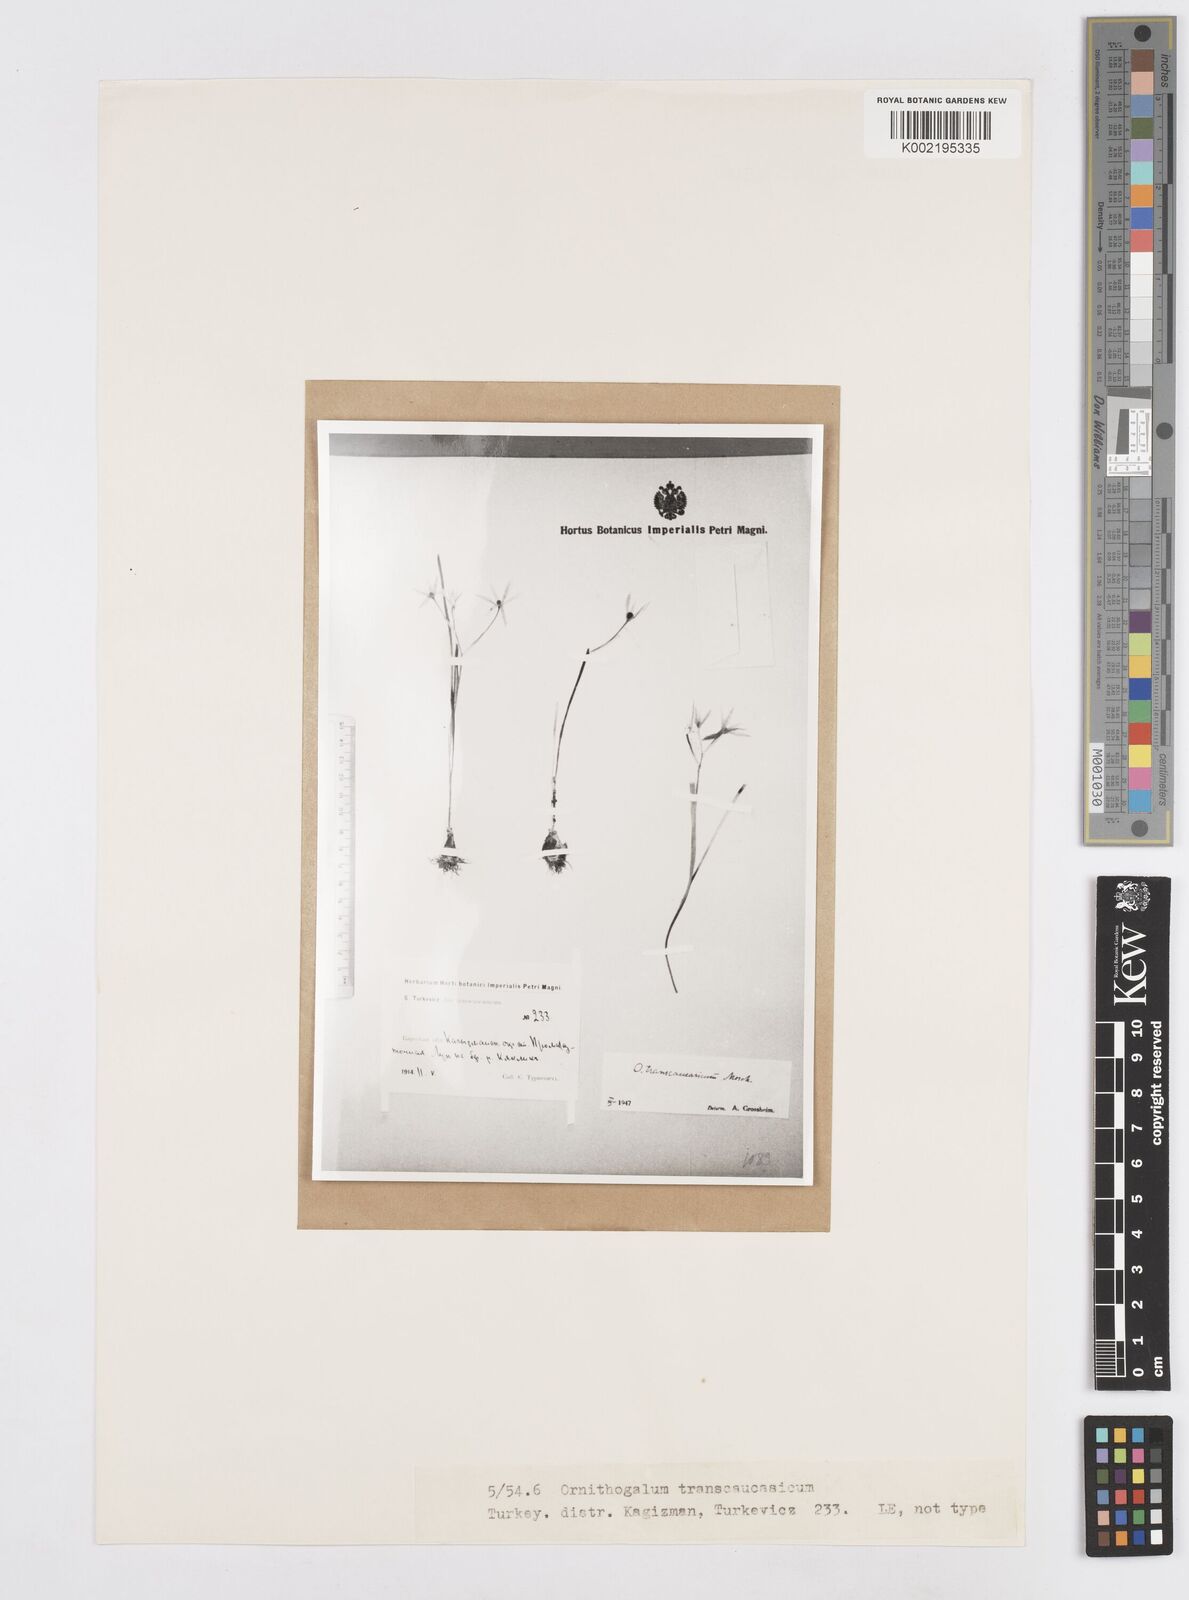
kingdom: Plantae
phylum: Tracheophyta
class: Liliopsida
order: Asparagales
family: Asparagaceae
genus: Ornithogalum
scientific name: Ornithogalum transcaucasicum
